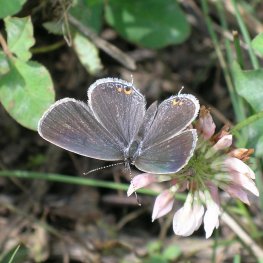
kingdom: Animalia
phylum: Arthropoda
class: Insecta
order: Lepidoptera
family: Lycaenidae
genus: Elkalyce
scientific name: Elkalyce comyntas
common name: Eastern Tailed-Blue
